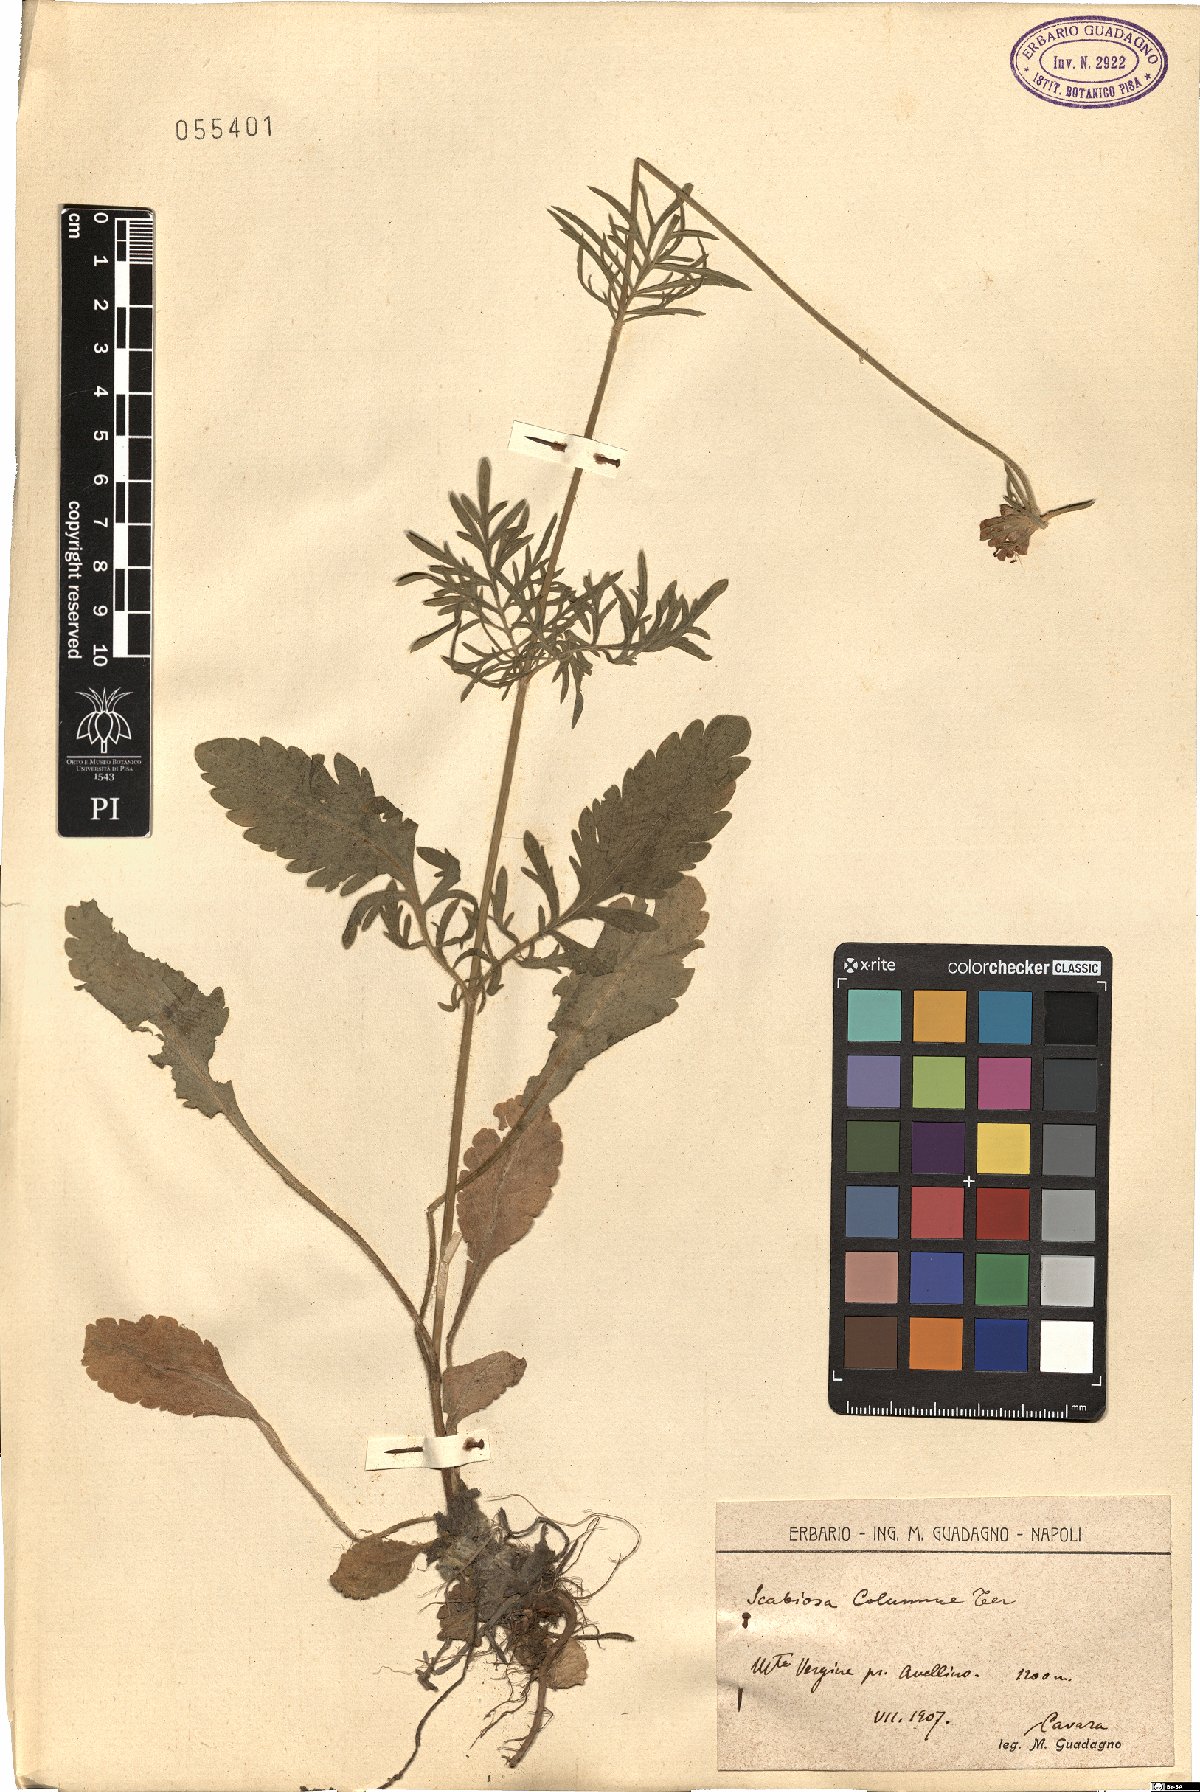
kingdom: Plantae
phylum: Tracheophyta
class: Magnoliopsida
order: Dipsacales
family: Caprifoliaceae
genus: Scabiosa
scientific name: Scabiosa holosericea
